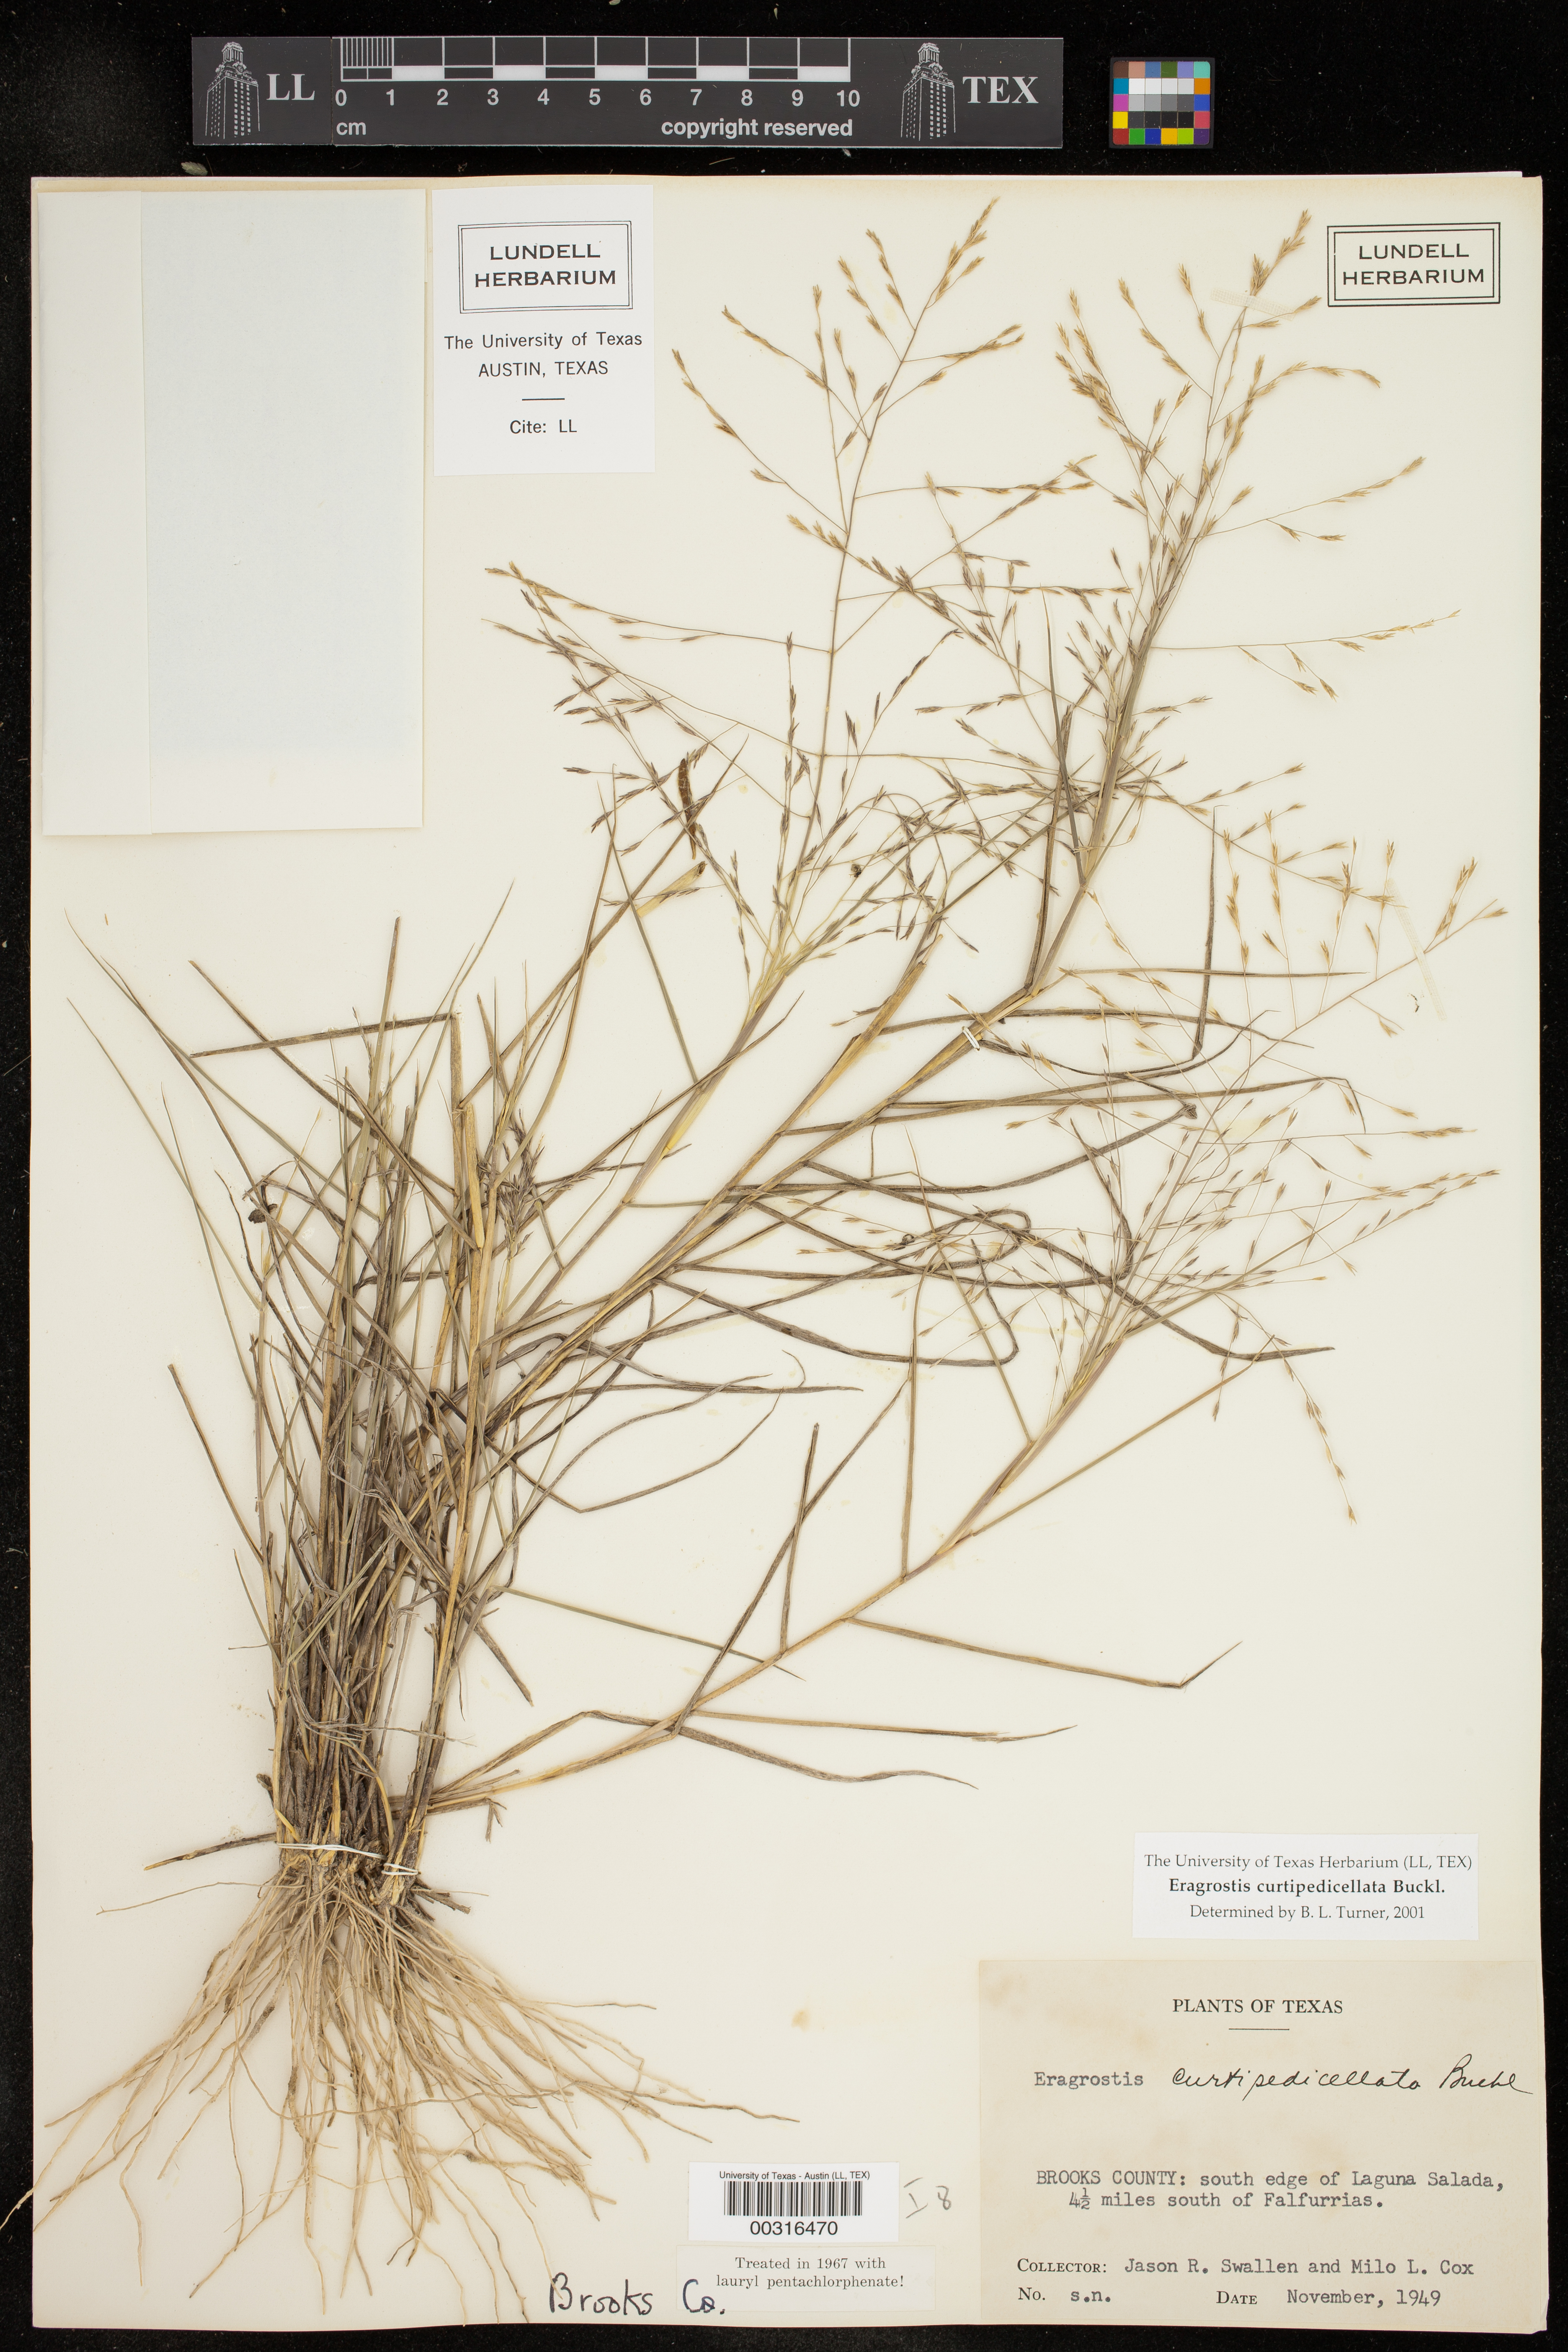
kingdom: Plantae
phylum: Tracheophyta
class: Liliopsida
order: Poales
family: Poaceae
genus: Eragrostis
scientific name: Eragrostis curtipedicellata
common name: Gummy love grass
